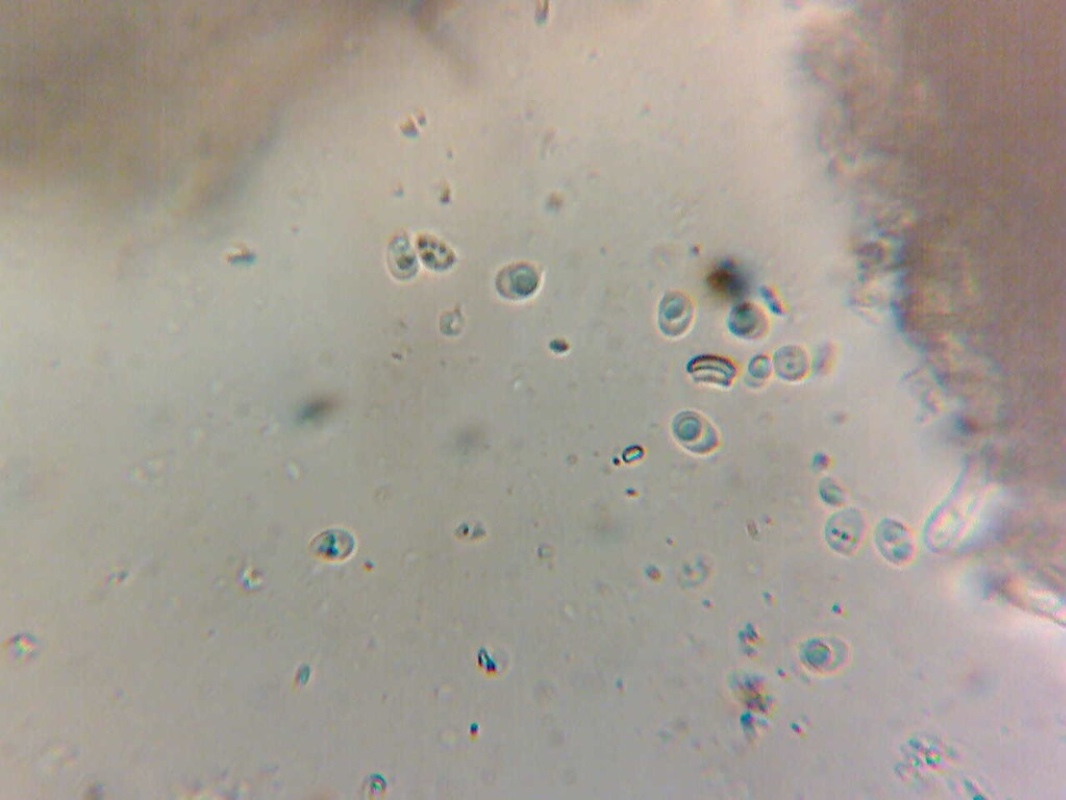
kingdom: Fungi
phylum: Basidiomycota
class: Agaricomycetes
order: Hymenochaetales
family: Schizoporaceae
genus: Schizopora
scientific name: Schizopora paradoxa
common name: hvid tandsvamp
